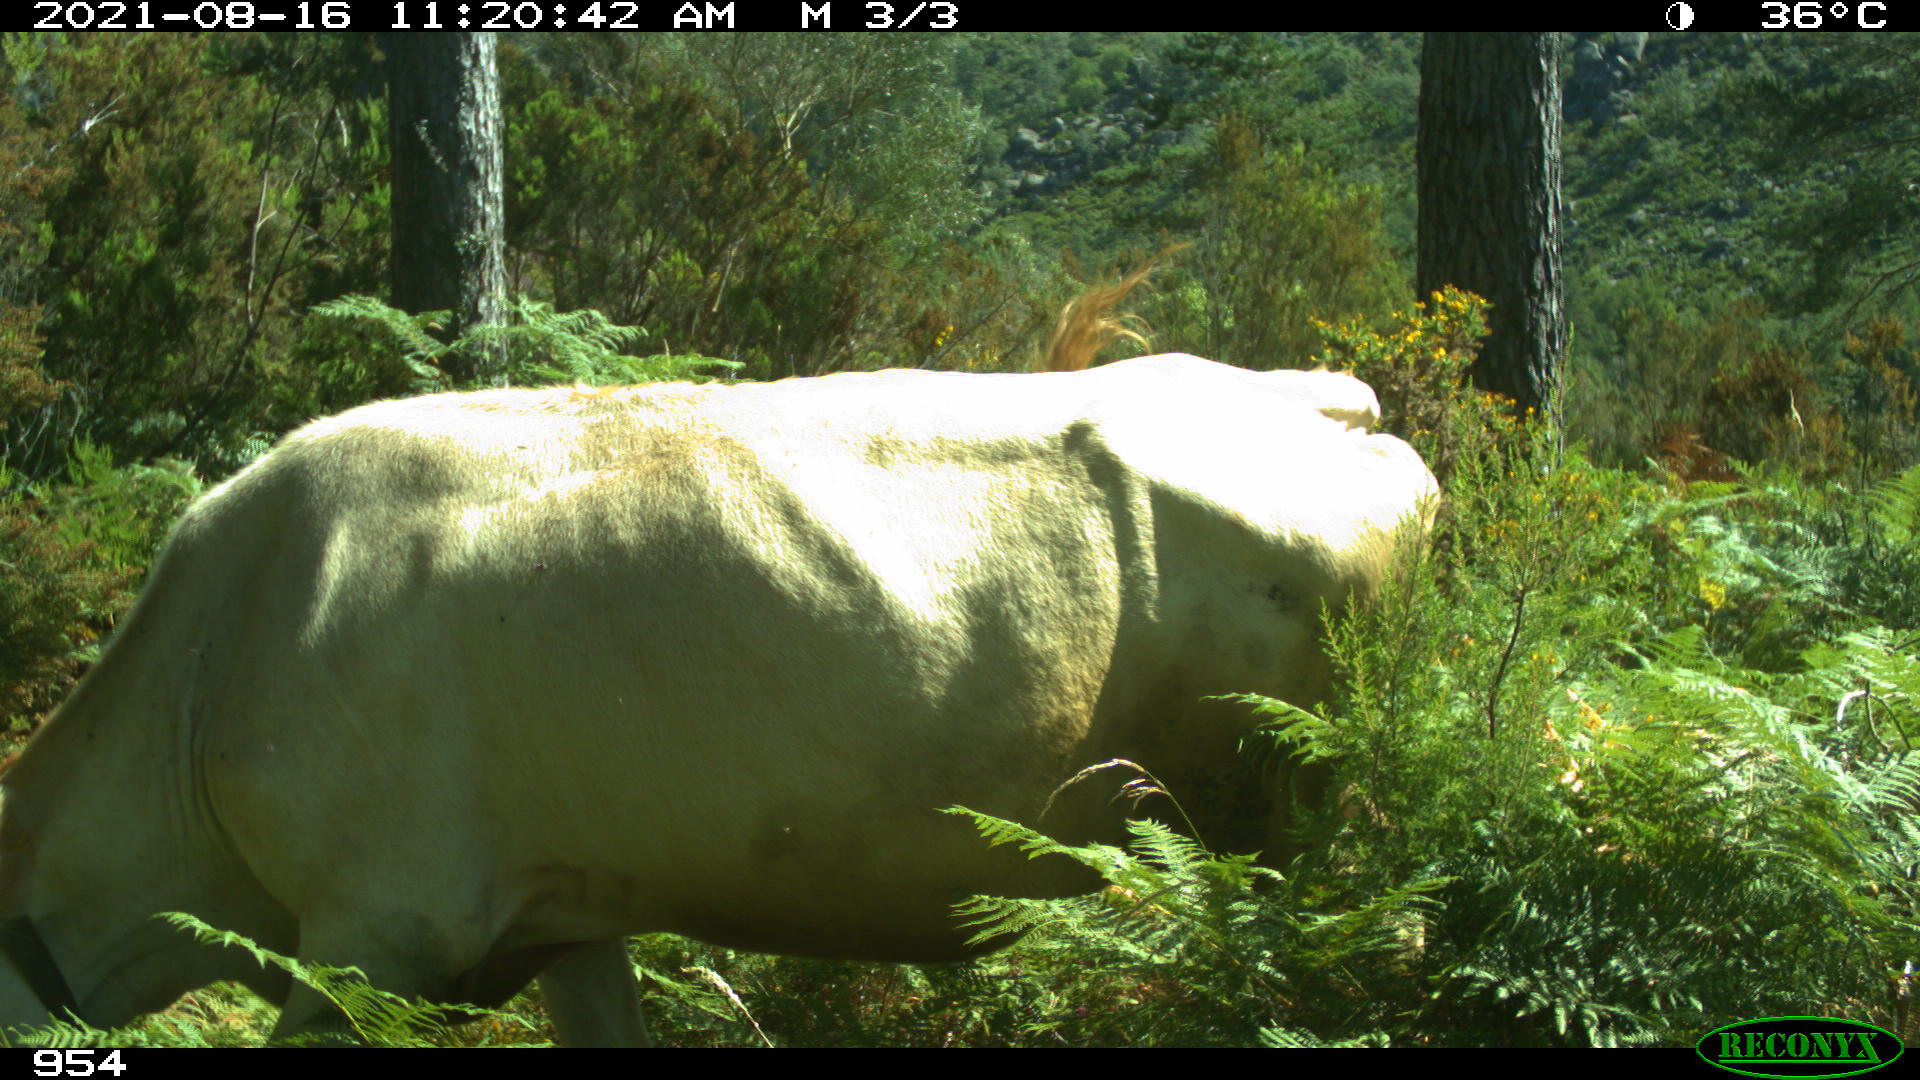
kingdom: Animalia
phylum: Chordata
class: Mammalia
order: Artiodactyla
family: Bovidae
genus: Bos
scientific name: Bos taurus
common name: Domesticated cattle
